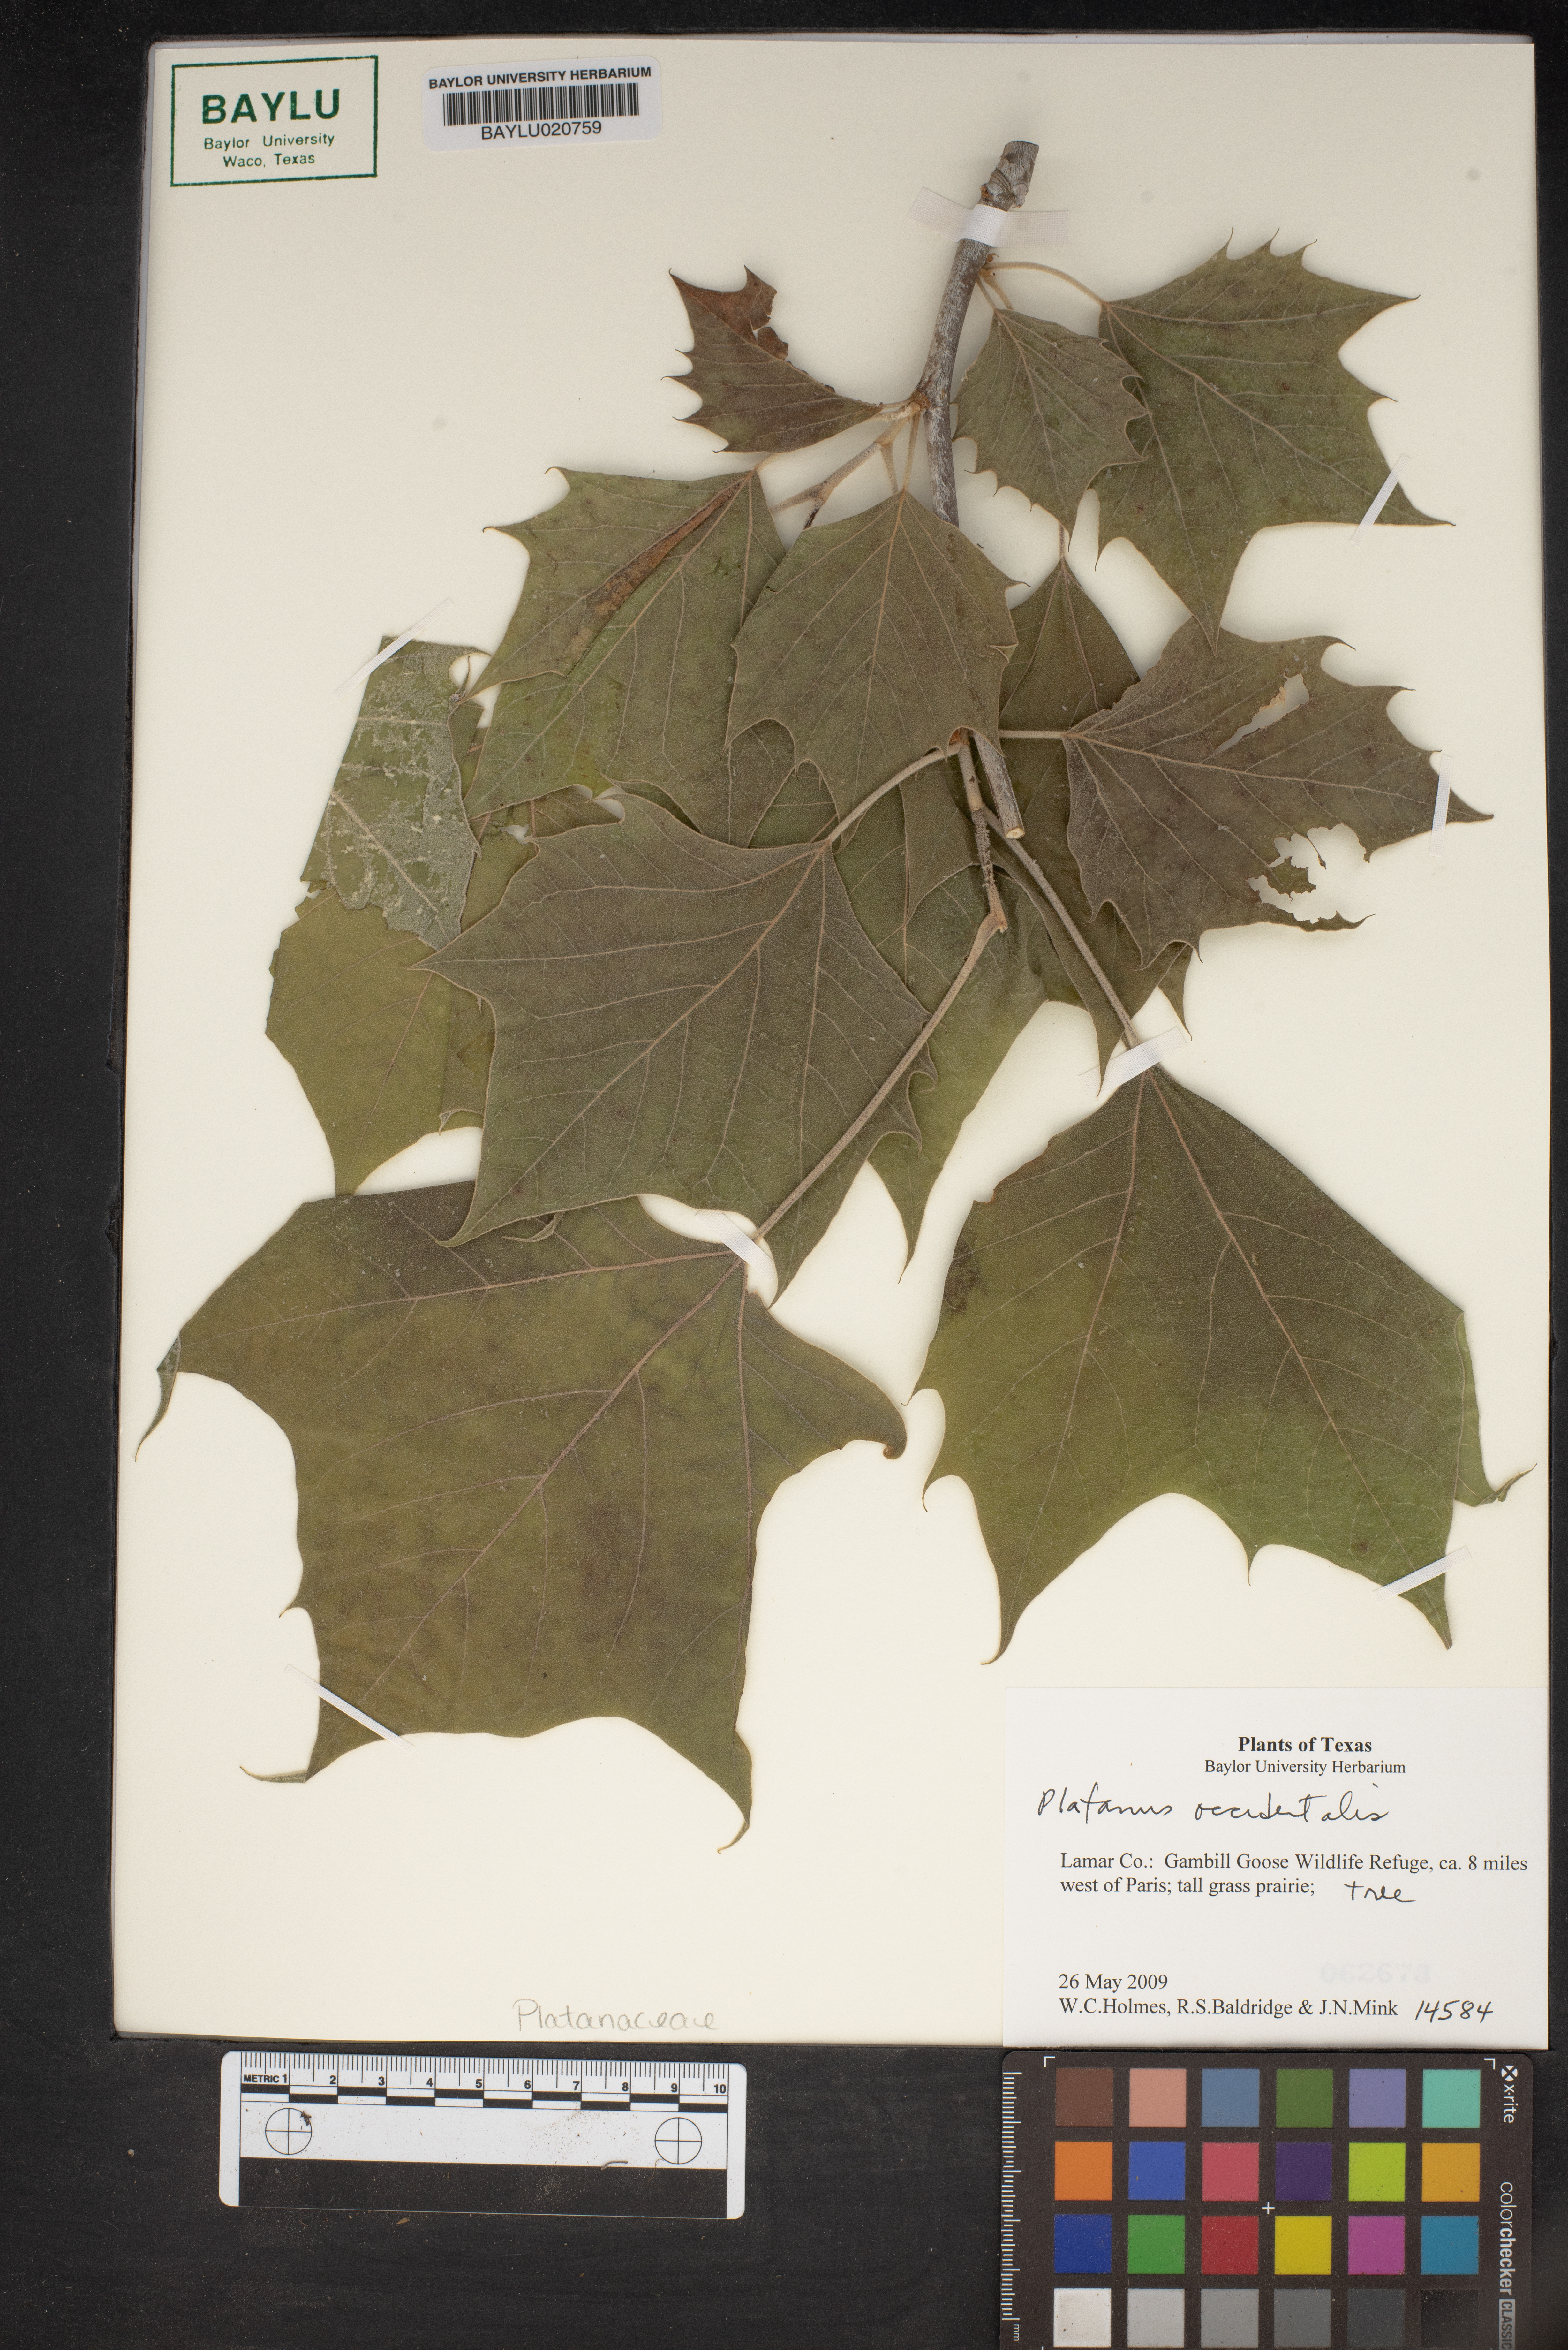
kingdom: Plantae
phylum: Tracheophyta
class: Magnoliopsida
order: Proteales
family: Platanaceae
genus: Platanus
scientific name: Platanus occidentalis
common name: American sycamore
